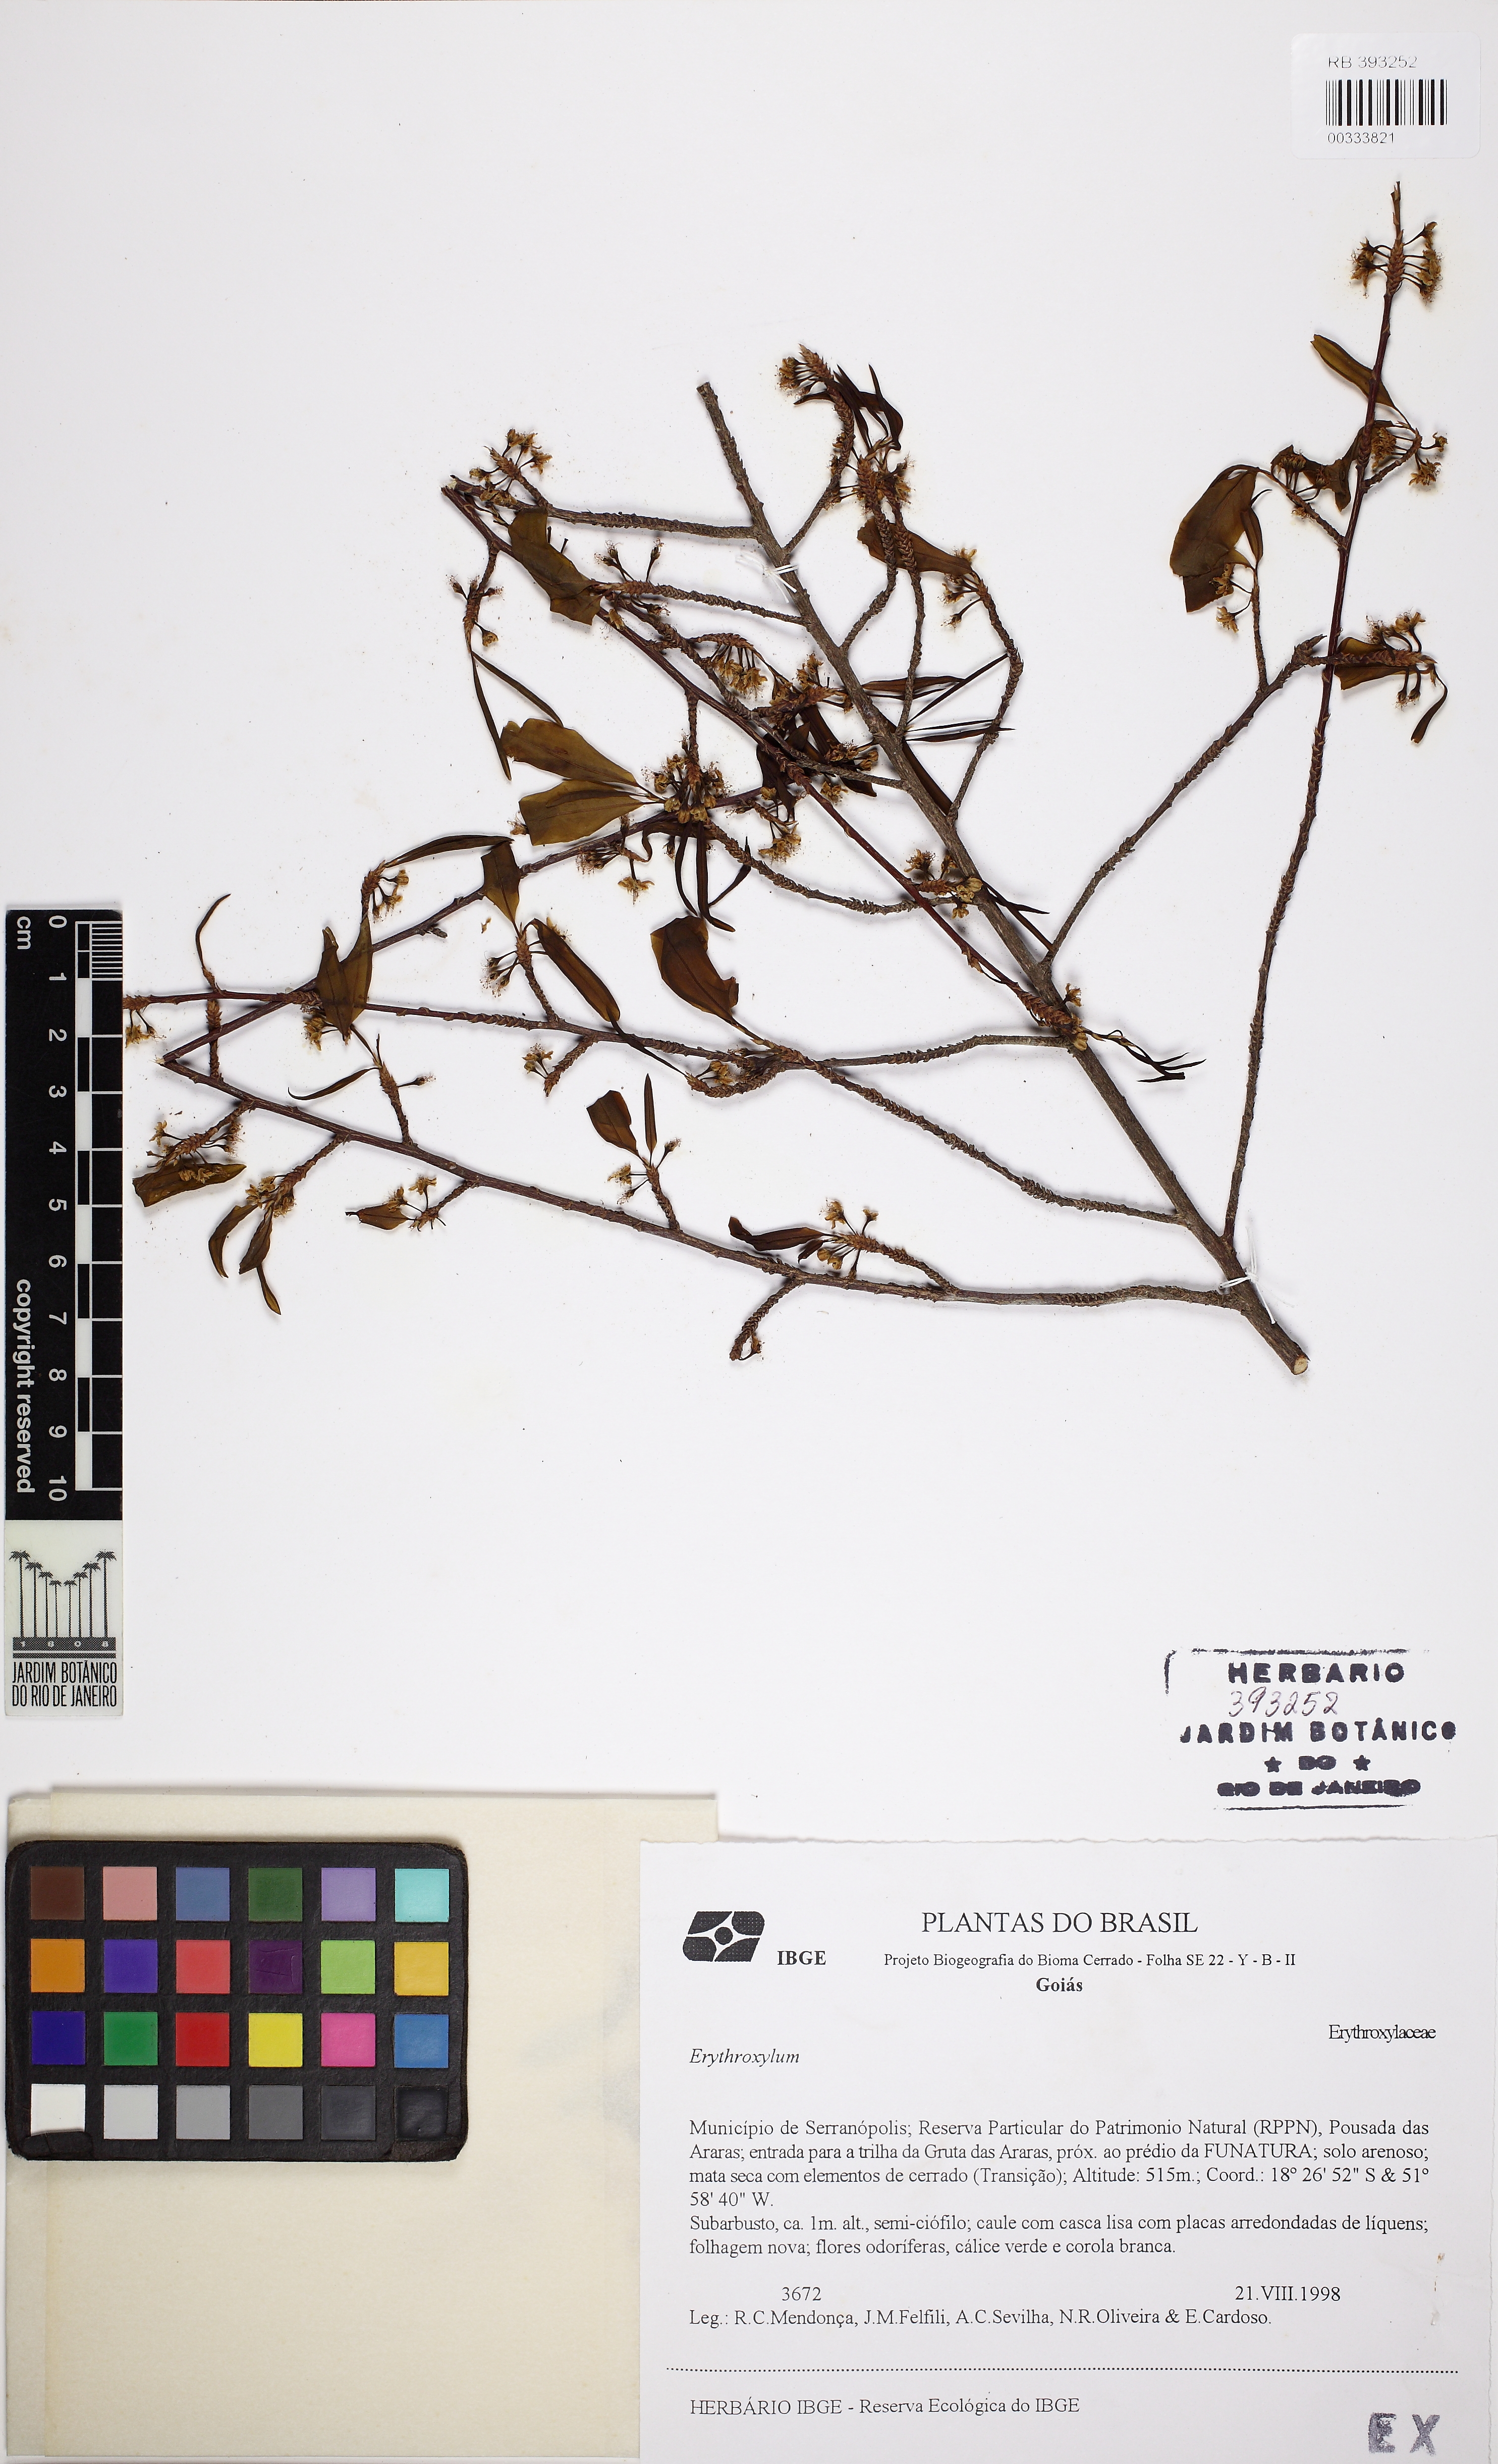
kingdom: Plantae
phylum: Tracheophyta
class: Magnoliopsida
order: Malpighiales
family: Erythroxylaceae
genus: Erythroxylum
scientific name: Erythroxylum pelleterianum
